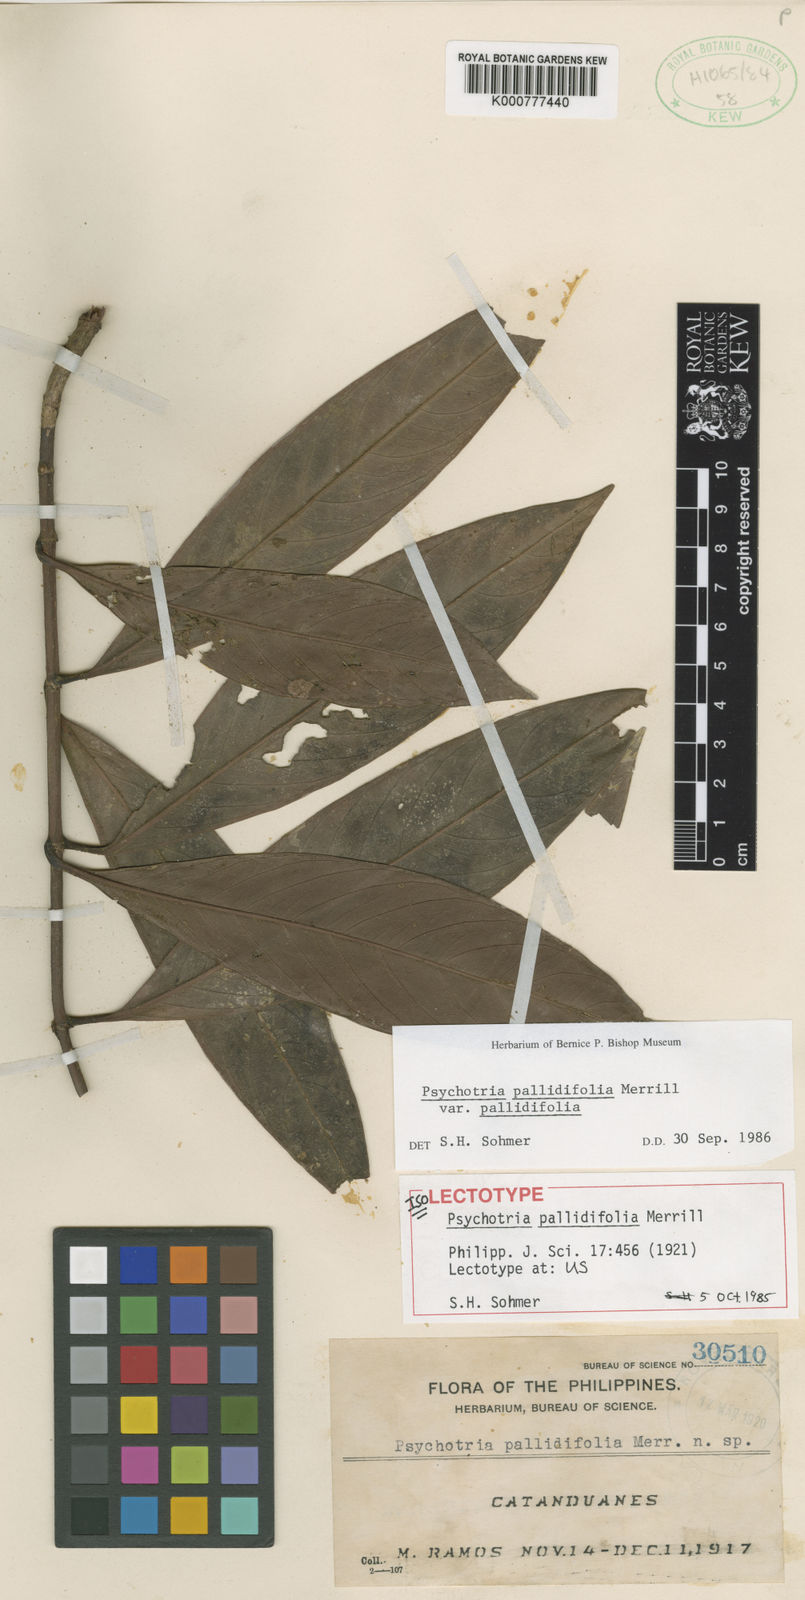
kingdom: Plantae
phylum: Tracheophyta
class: Magnoliopsida
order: Gentianales
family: Rubiaceae
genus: Psychotria
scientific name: Psychotria pallidifolia
